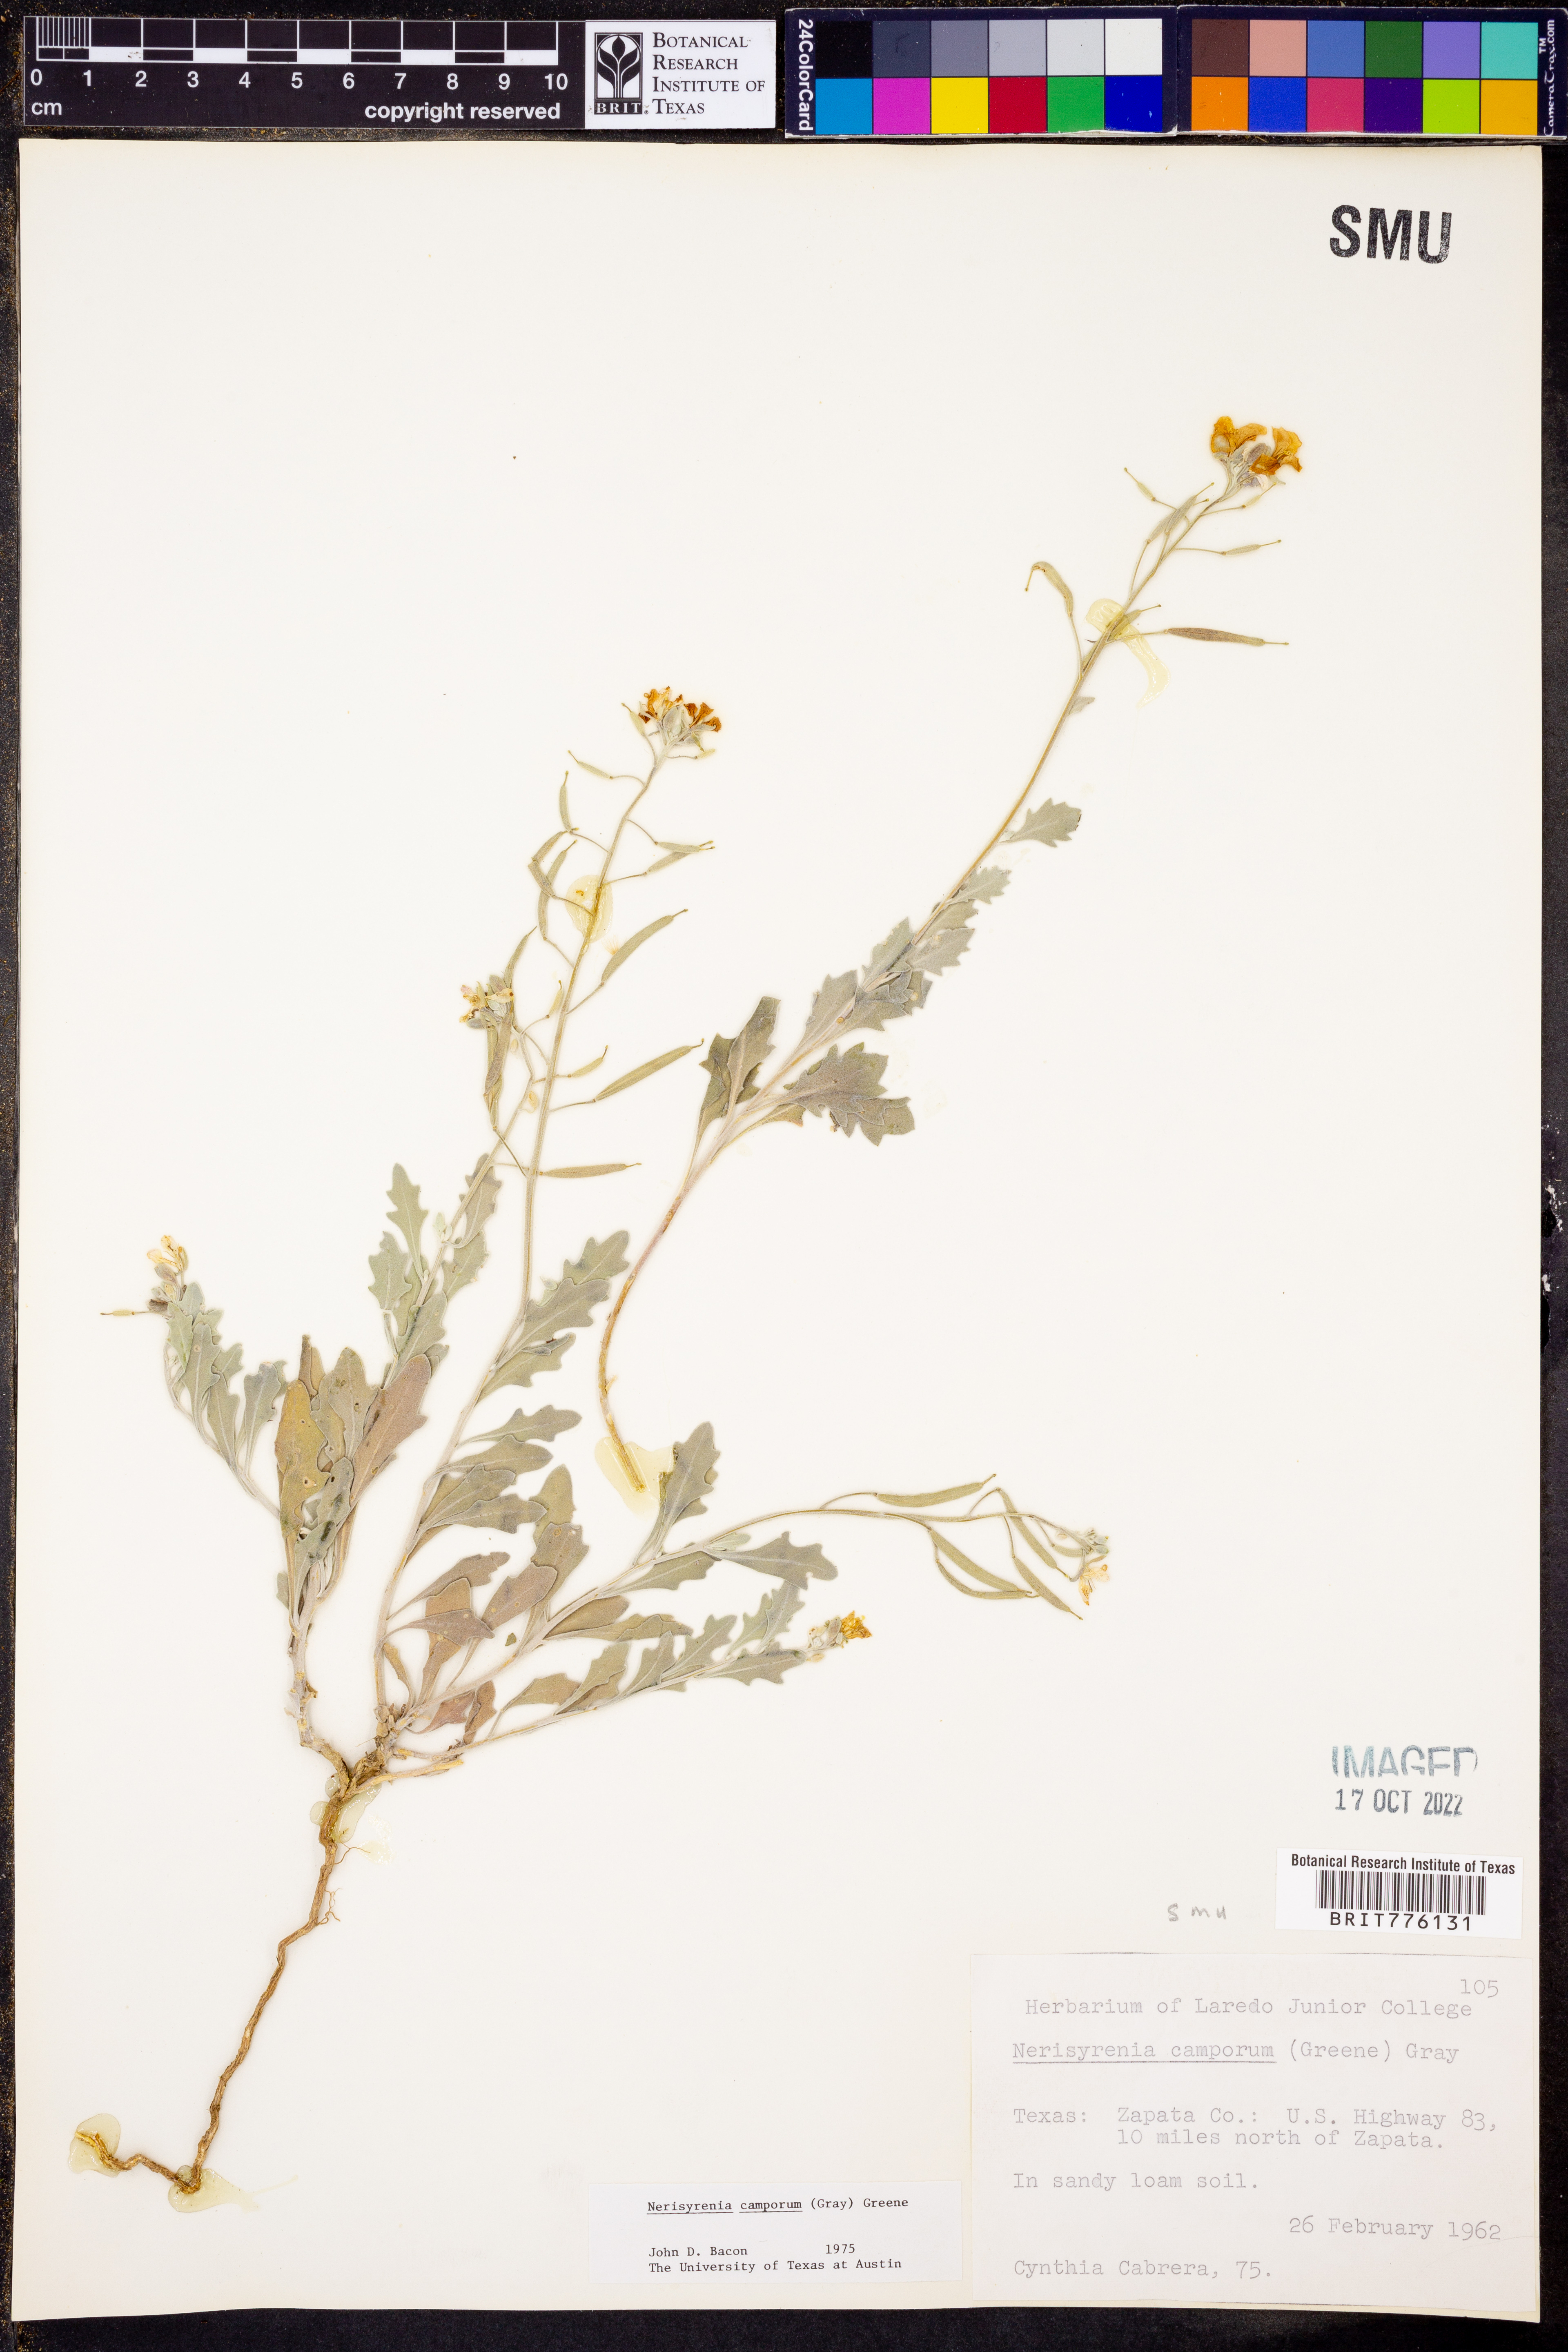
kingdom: Plantae
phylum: Tracheophyta
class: Magnoliopsida
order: Brassicales
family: Brassicaceae
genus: Nerisyrenia
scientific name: Nerisyrenia camporum
